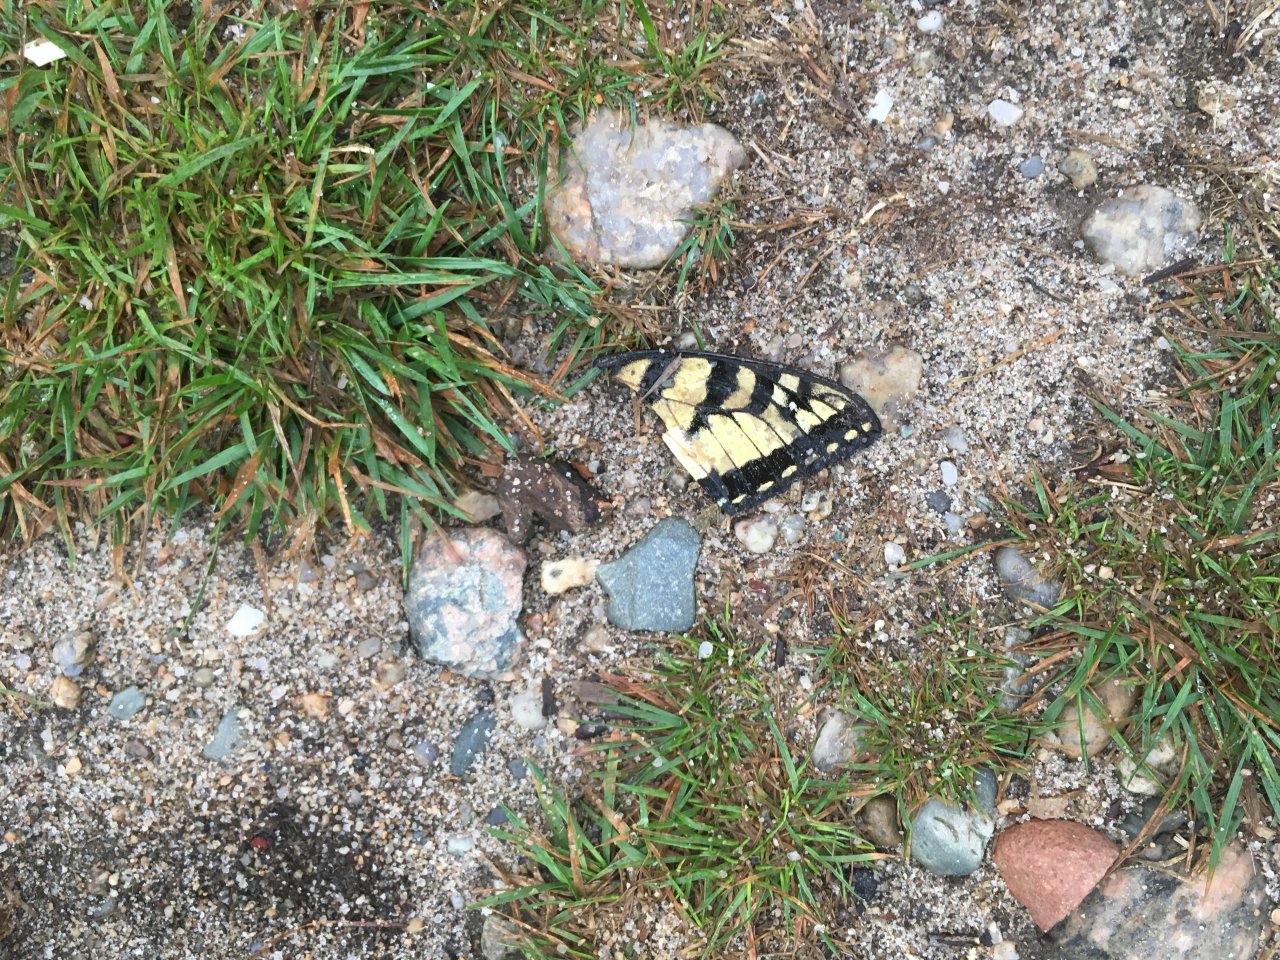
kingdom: Animalia
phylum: Arthropoda
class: Insecta
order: Lepidoptera
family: Papilionidae
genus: Pterourus
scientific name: Pterourus glaucus
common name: Eastern Tiger Swallowtail
